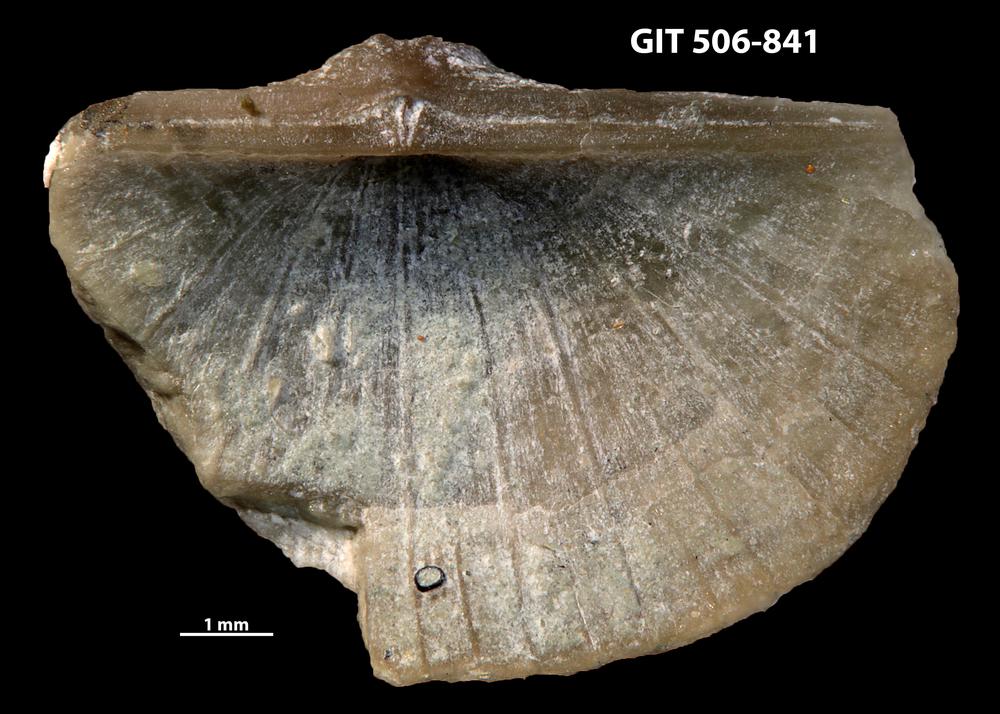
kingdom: Animalia
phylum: Brachiopoda
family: Oldhaminidae
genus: Eoplectodonta
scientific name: Eoplectodonta exceptionis
